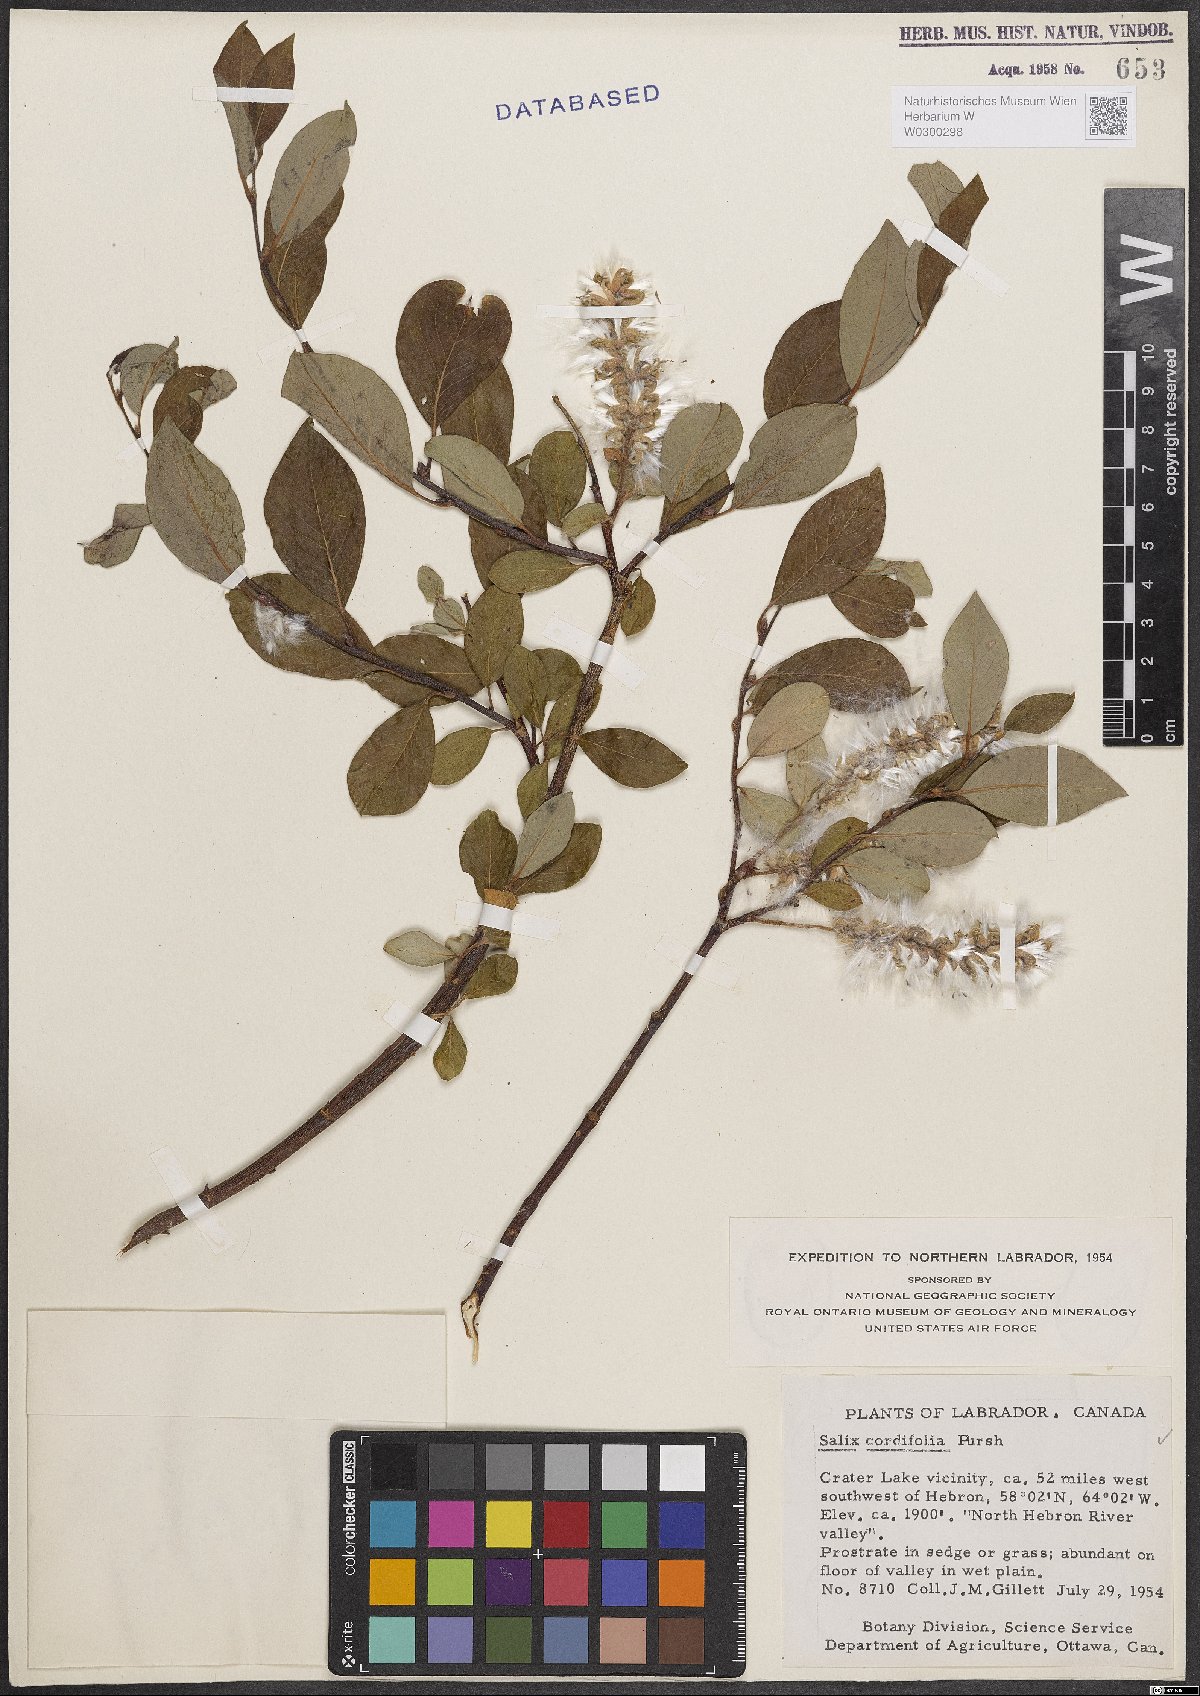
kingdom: Plantae
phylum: Tracheophyta
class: Magnoliopsida
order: Malpighiales
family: Salicaceae
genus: Salix
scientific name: Salix
